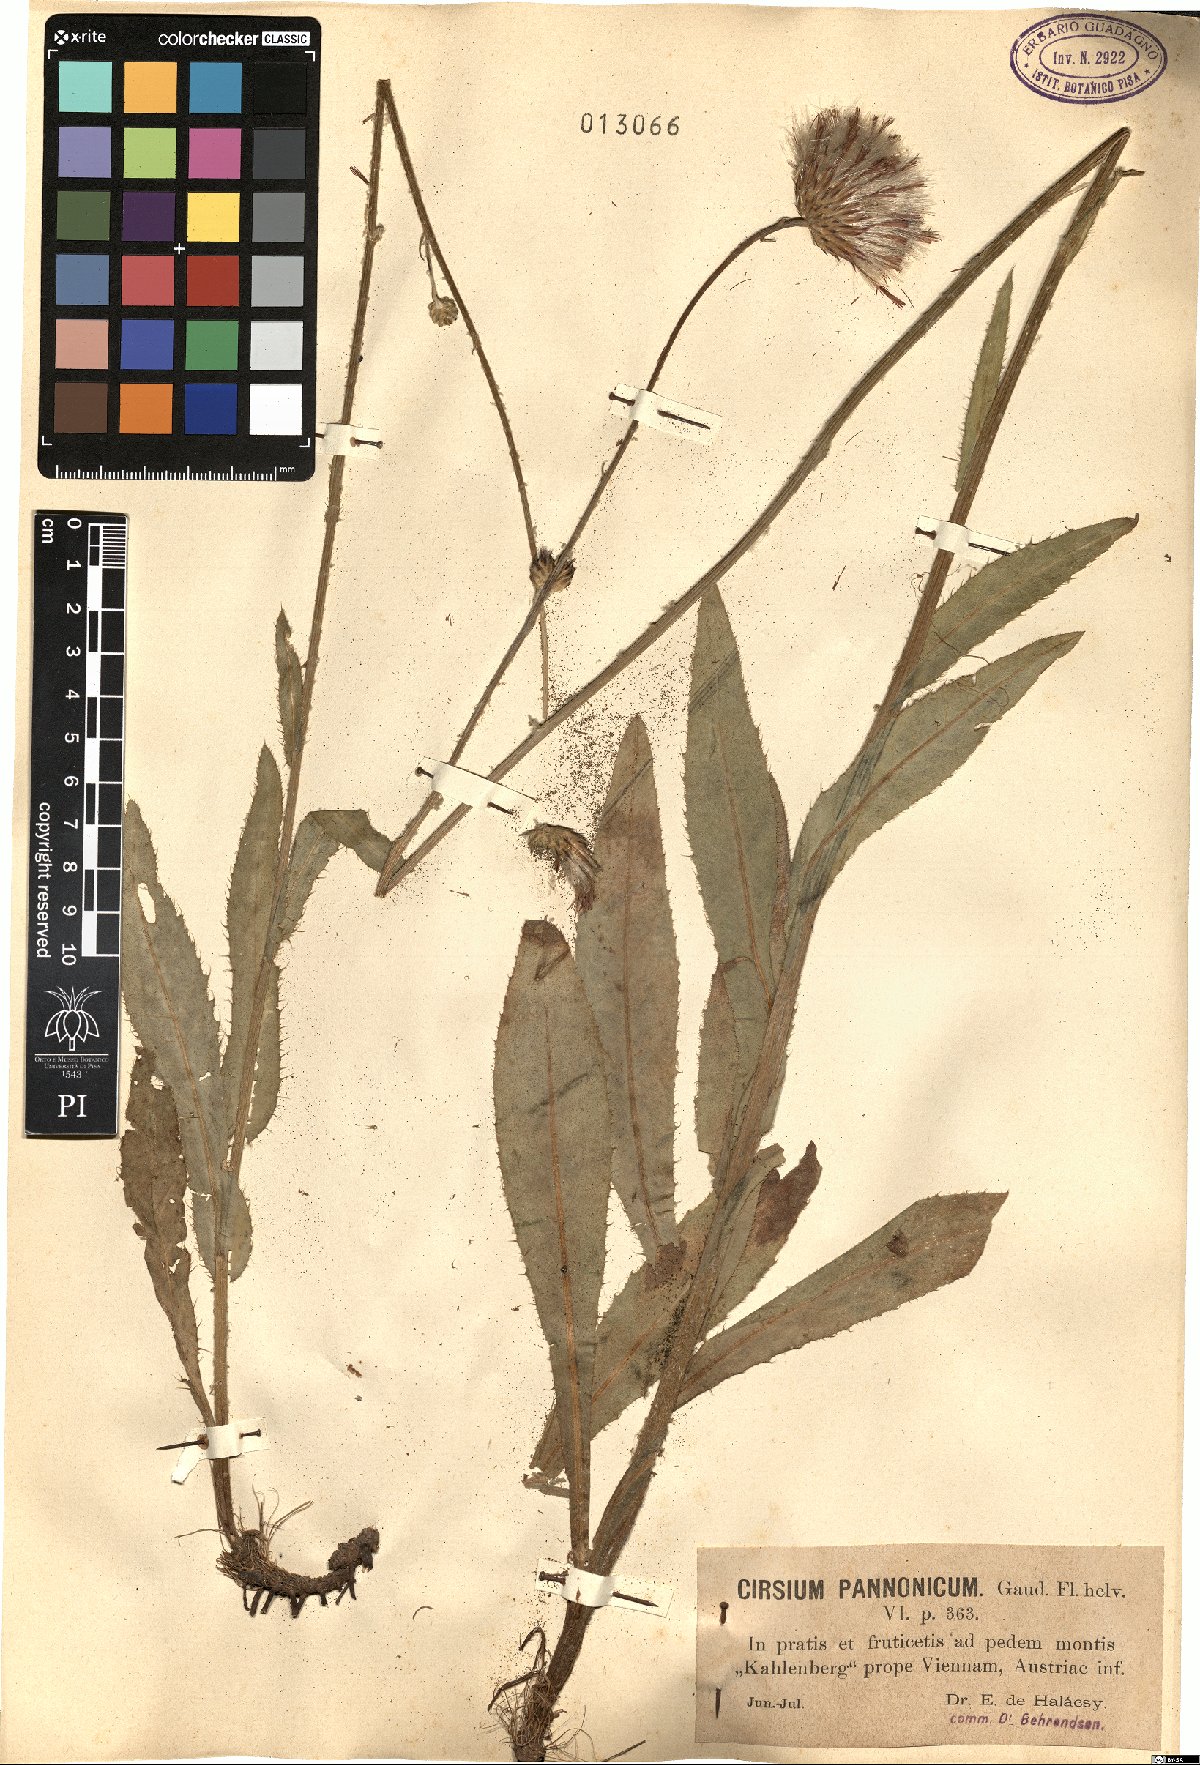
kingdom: Plantae
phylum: Tracheophyta
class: Magnoliopsida
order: Asterales
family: Asteraceae
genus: Cirsium
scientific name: Cirsium pannonicum
